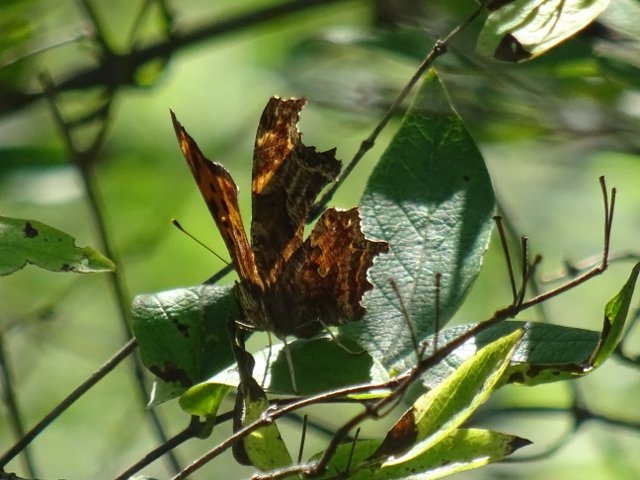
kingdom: Animalia
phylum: Arthropoda
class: Insecta
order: Lepidoptera
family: Nymphalidae
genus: Polygonia
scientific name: Polygonia comma
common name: Eastern Comma
